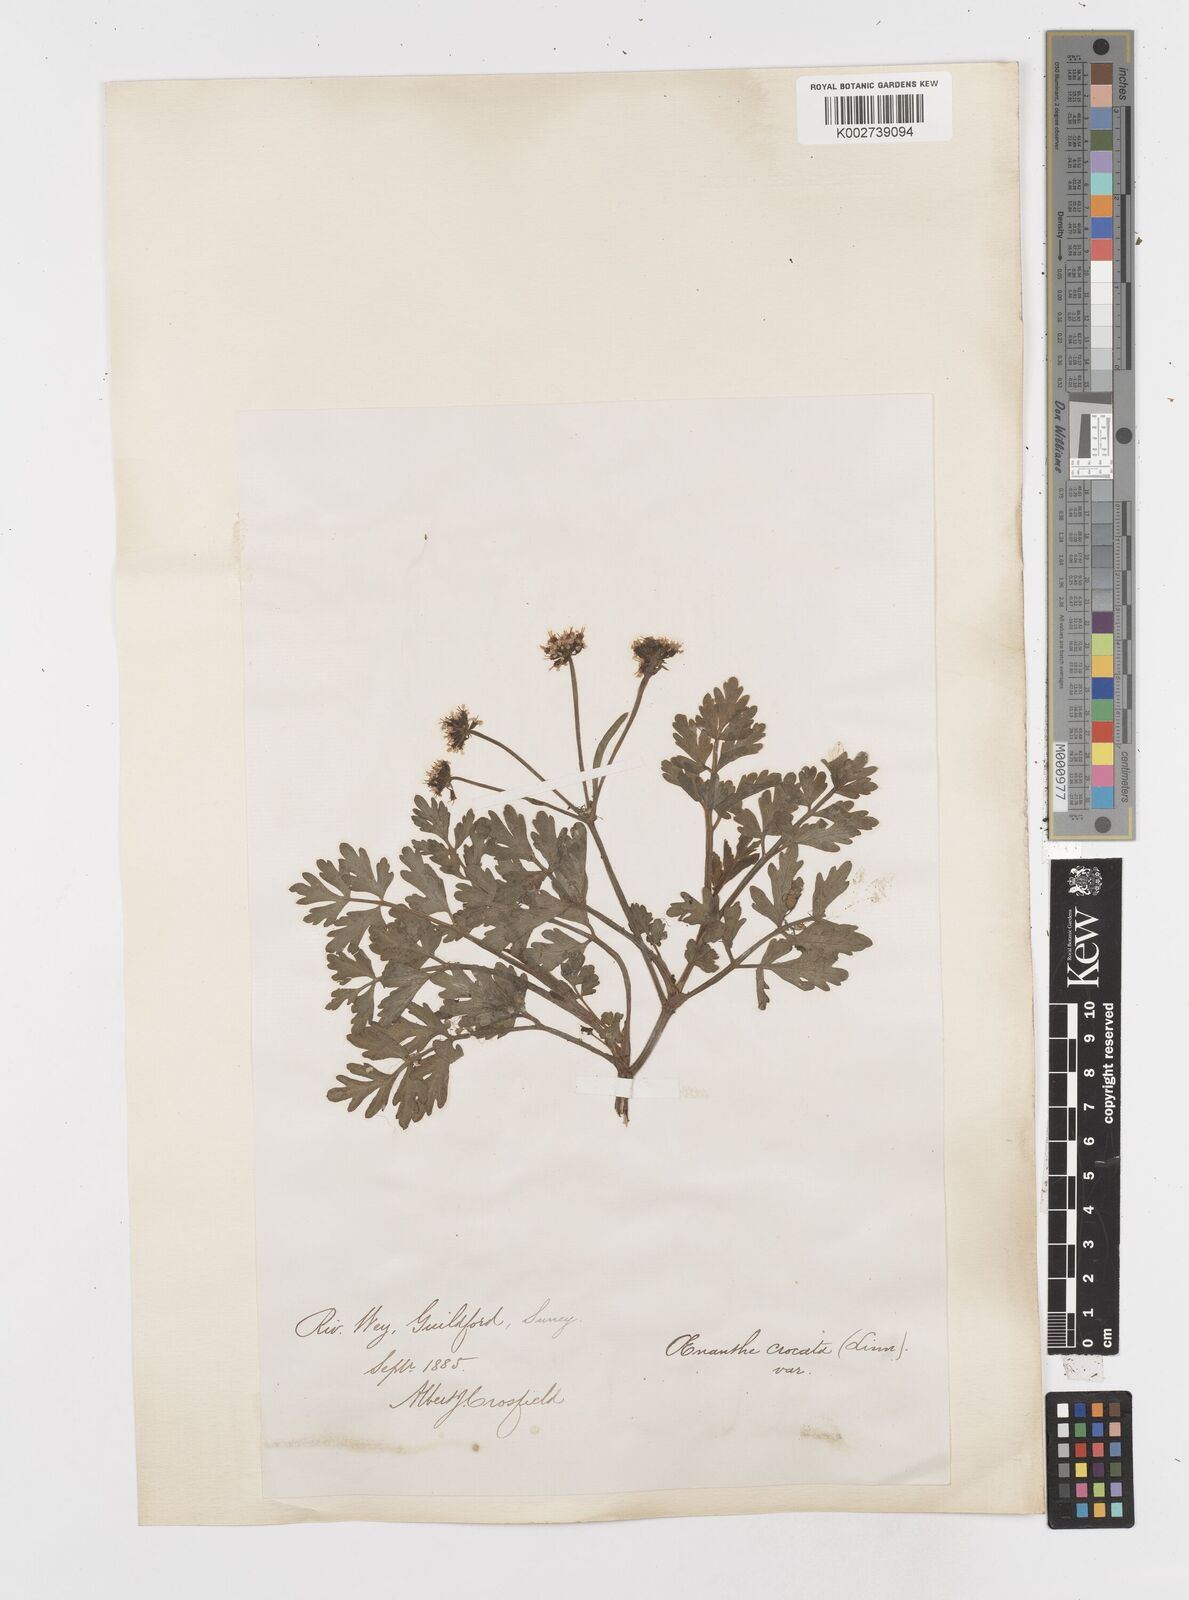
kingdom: Plantae
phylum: Tracheophyta
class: Magnoliopsida
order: Apiales
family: Apiaceae
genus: Oenanthe
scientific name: Oenanthe crocata
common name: Hemlock water-dropwort
